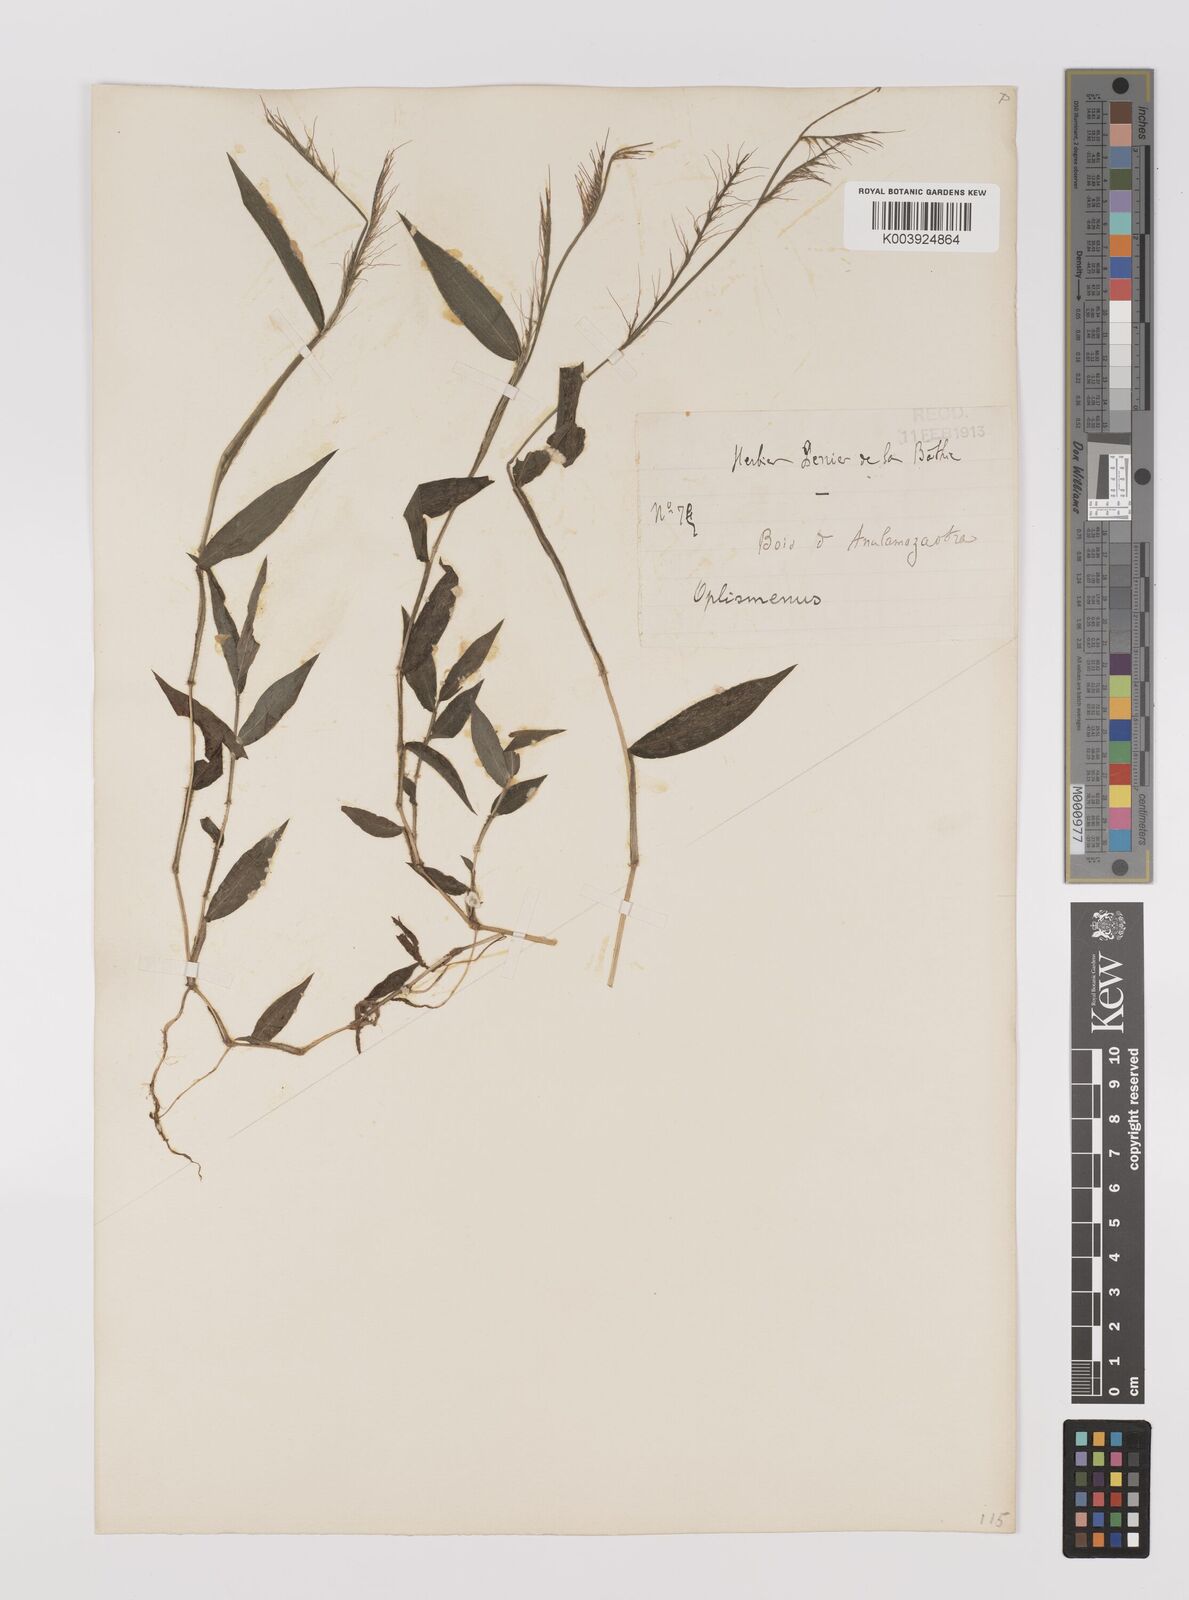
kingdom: Plantae
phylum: Tracheophyta
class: Liliopsida
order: Poales
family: Poaceae
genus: Oplismenus
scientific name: Oplismenus compositus
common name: Running mountain grass
